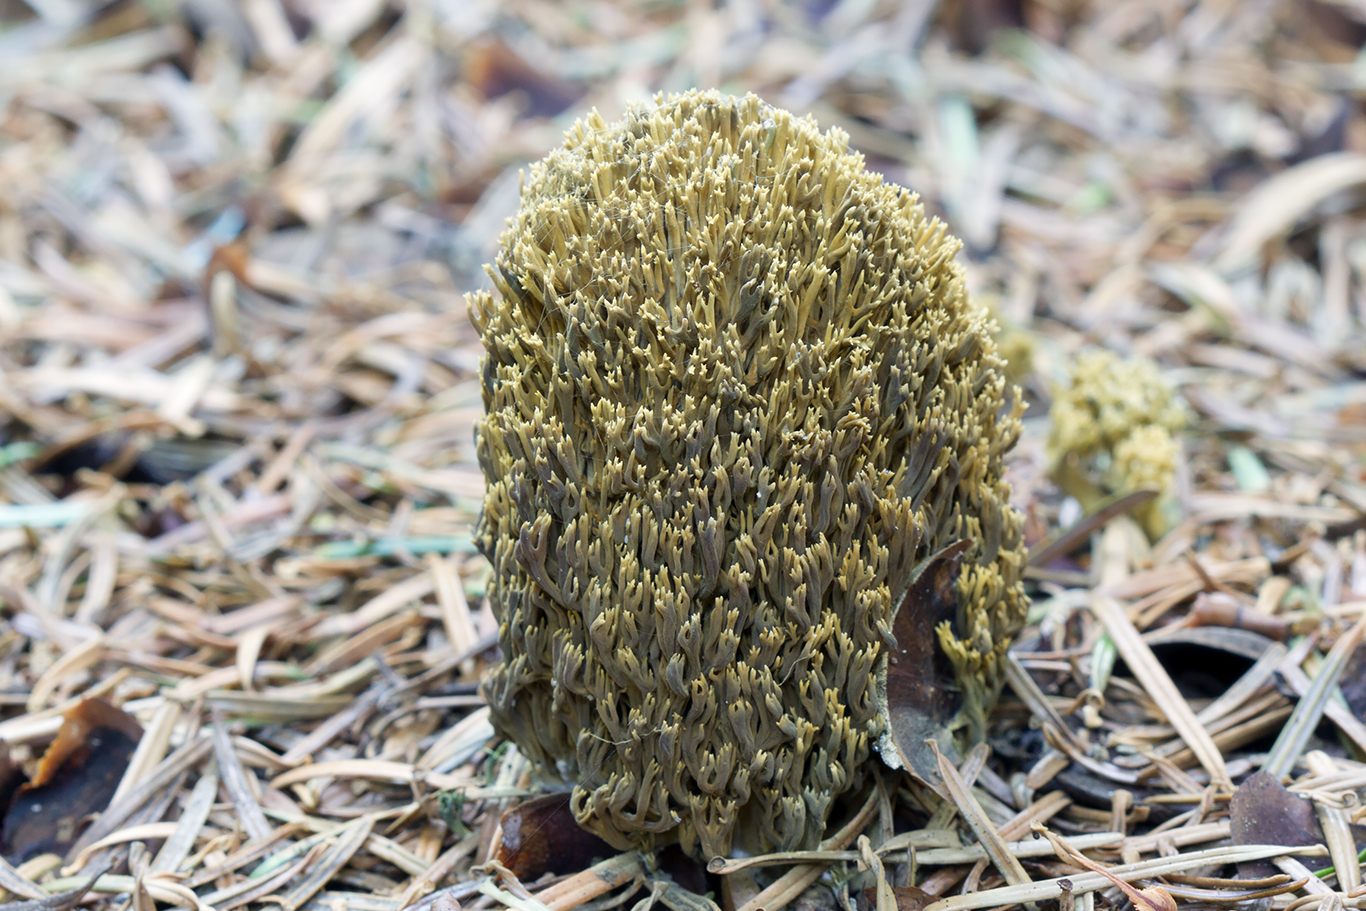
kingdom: Fungi
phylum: Basidiomycota
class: Agaricomycetes
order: Gomphales
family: Gomphaceae
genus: Phaeoclavulina
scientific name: Phaeoclavulina abietina
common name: gulgrøn koralsvamp
